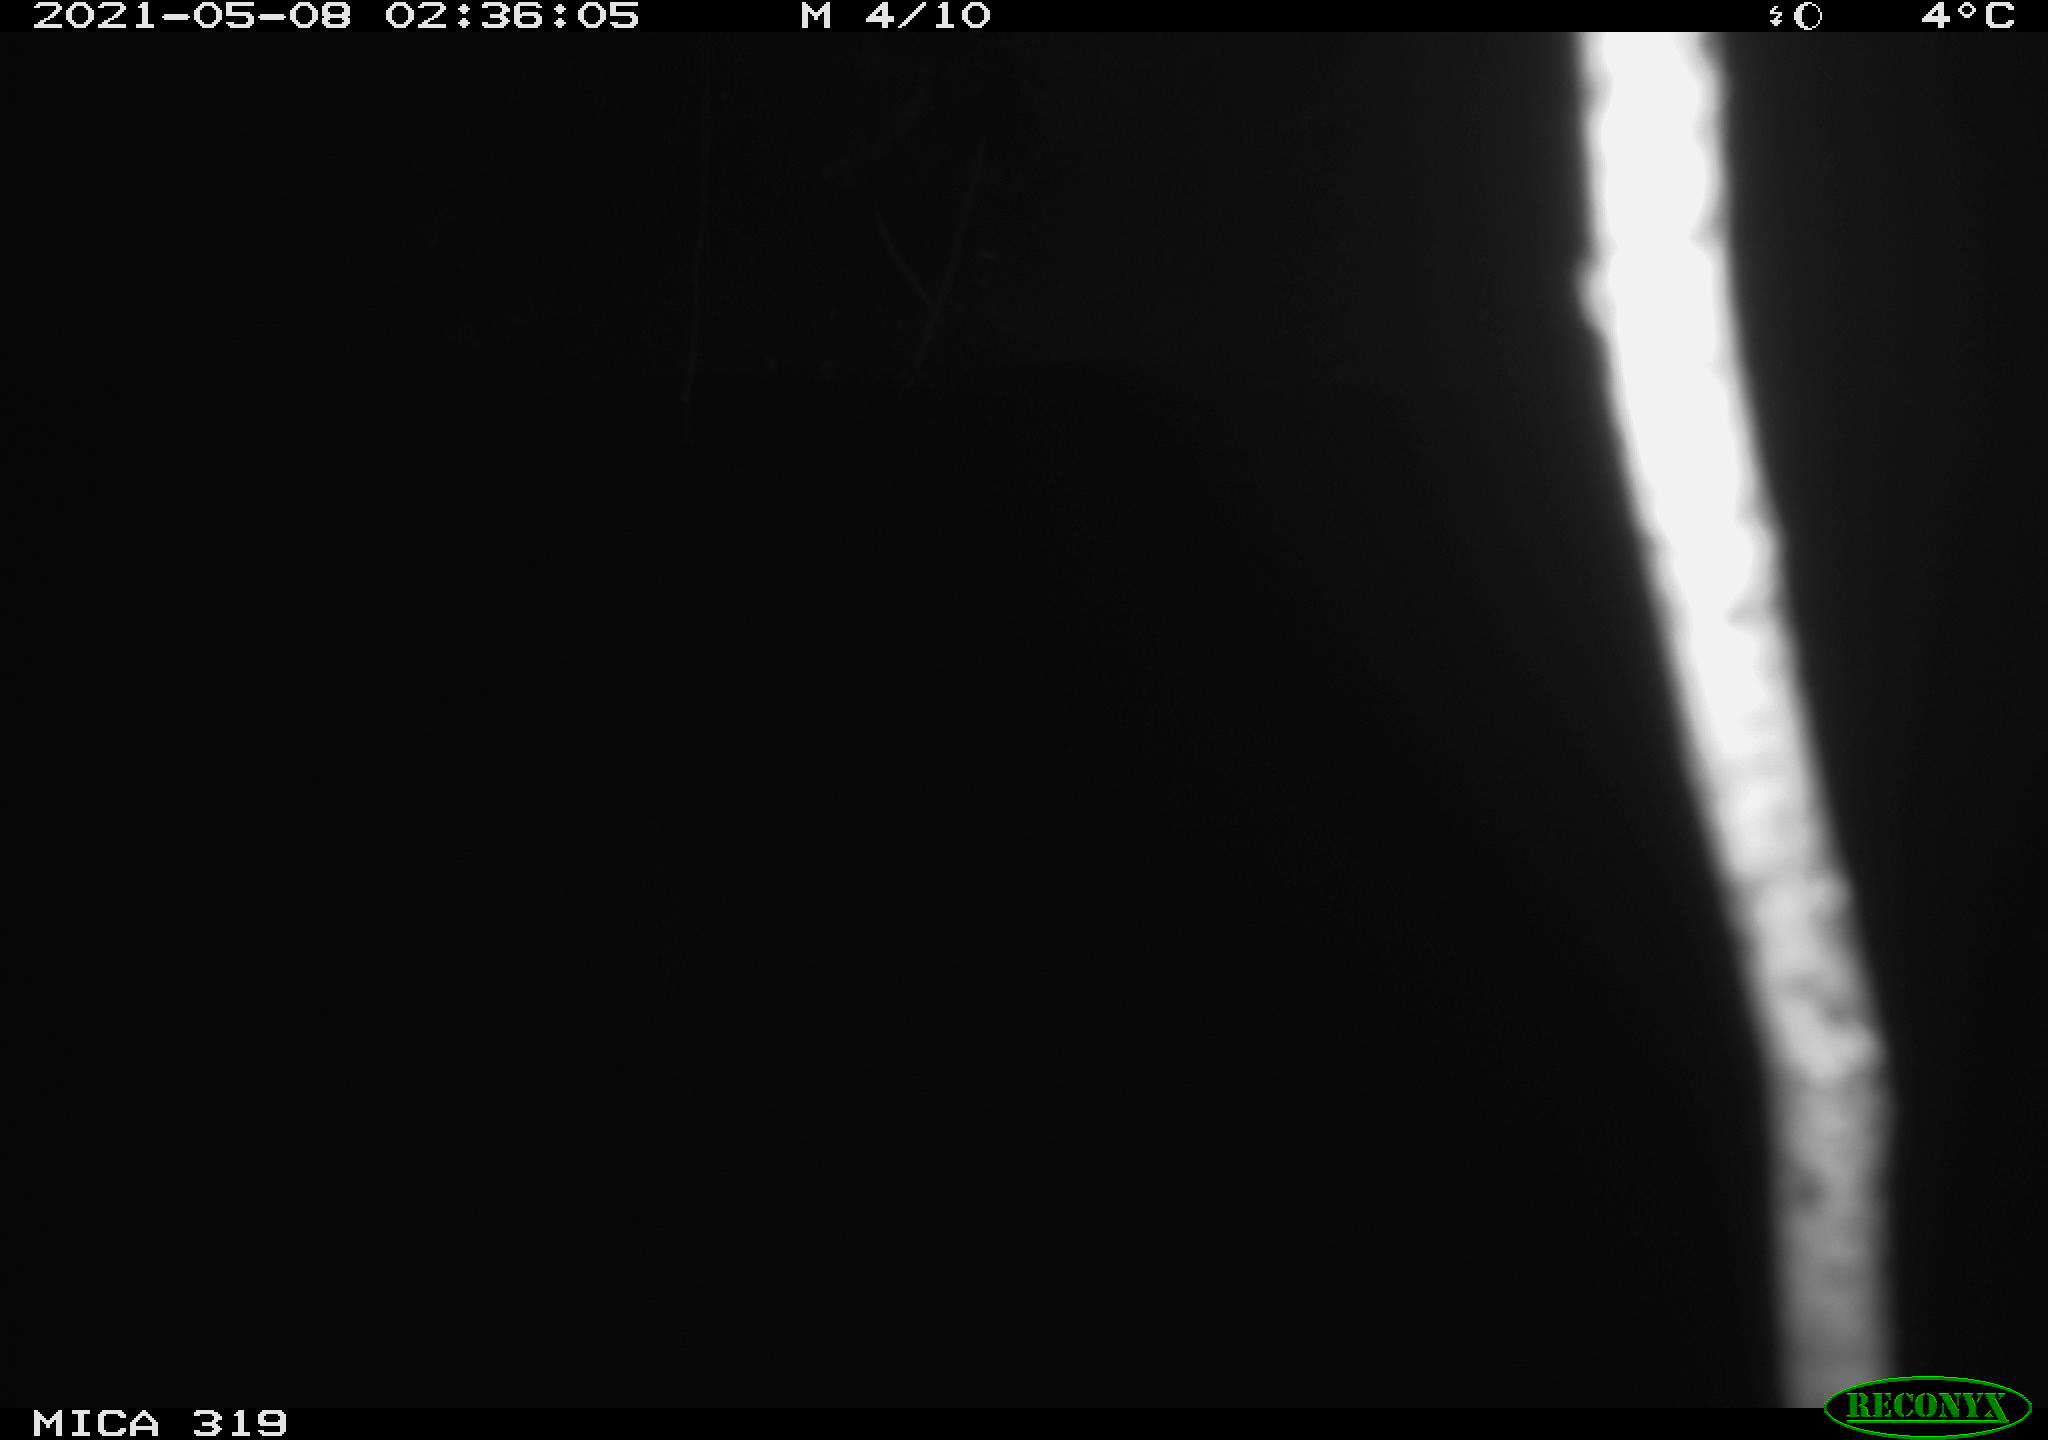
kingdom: Animalia
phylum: Chordata
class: Aves
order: Anseriformes
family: Anatidae
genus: Anas
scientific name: Anas platyrhynchos
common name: Mallard
